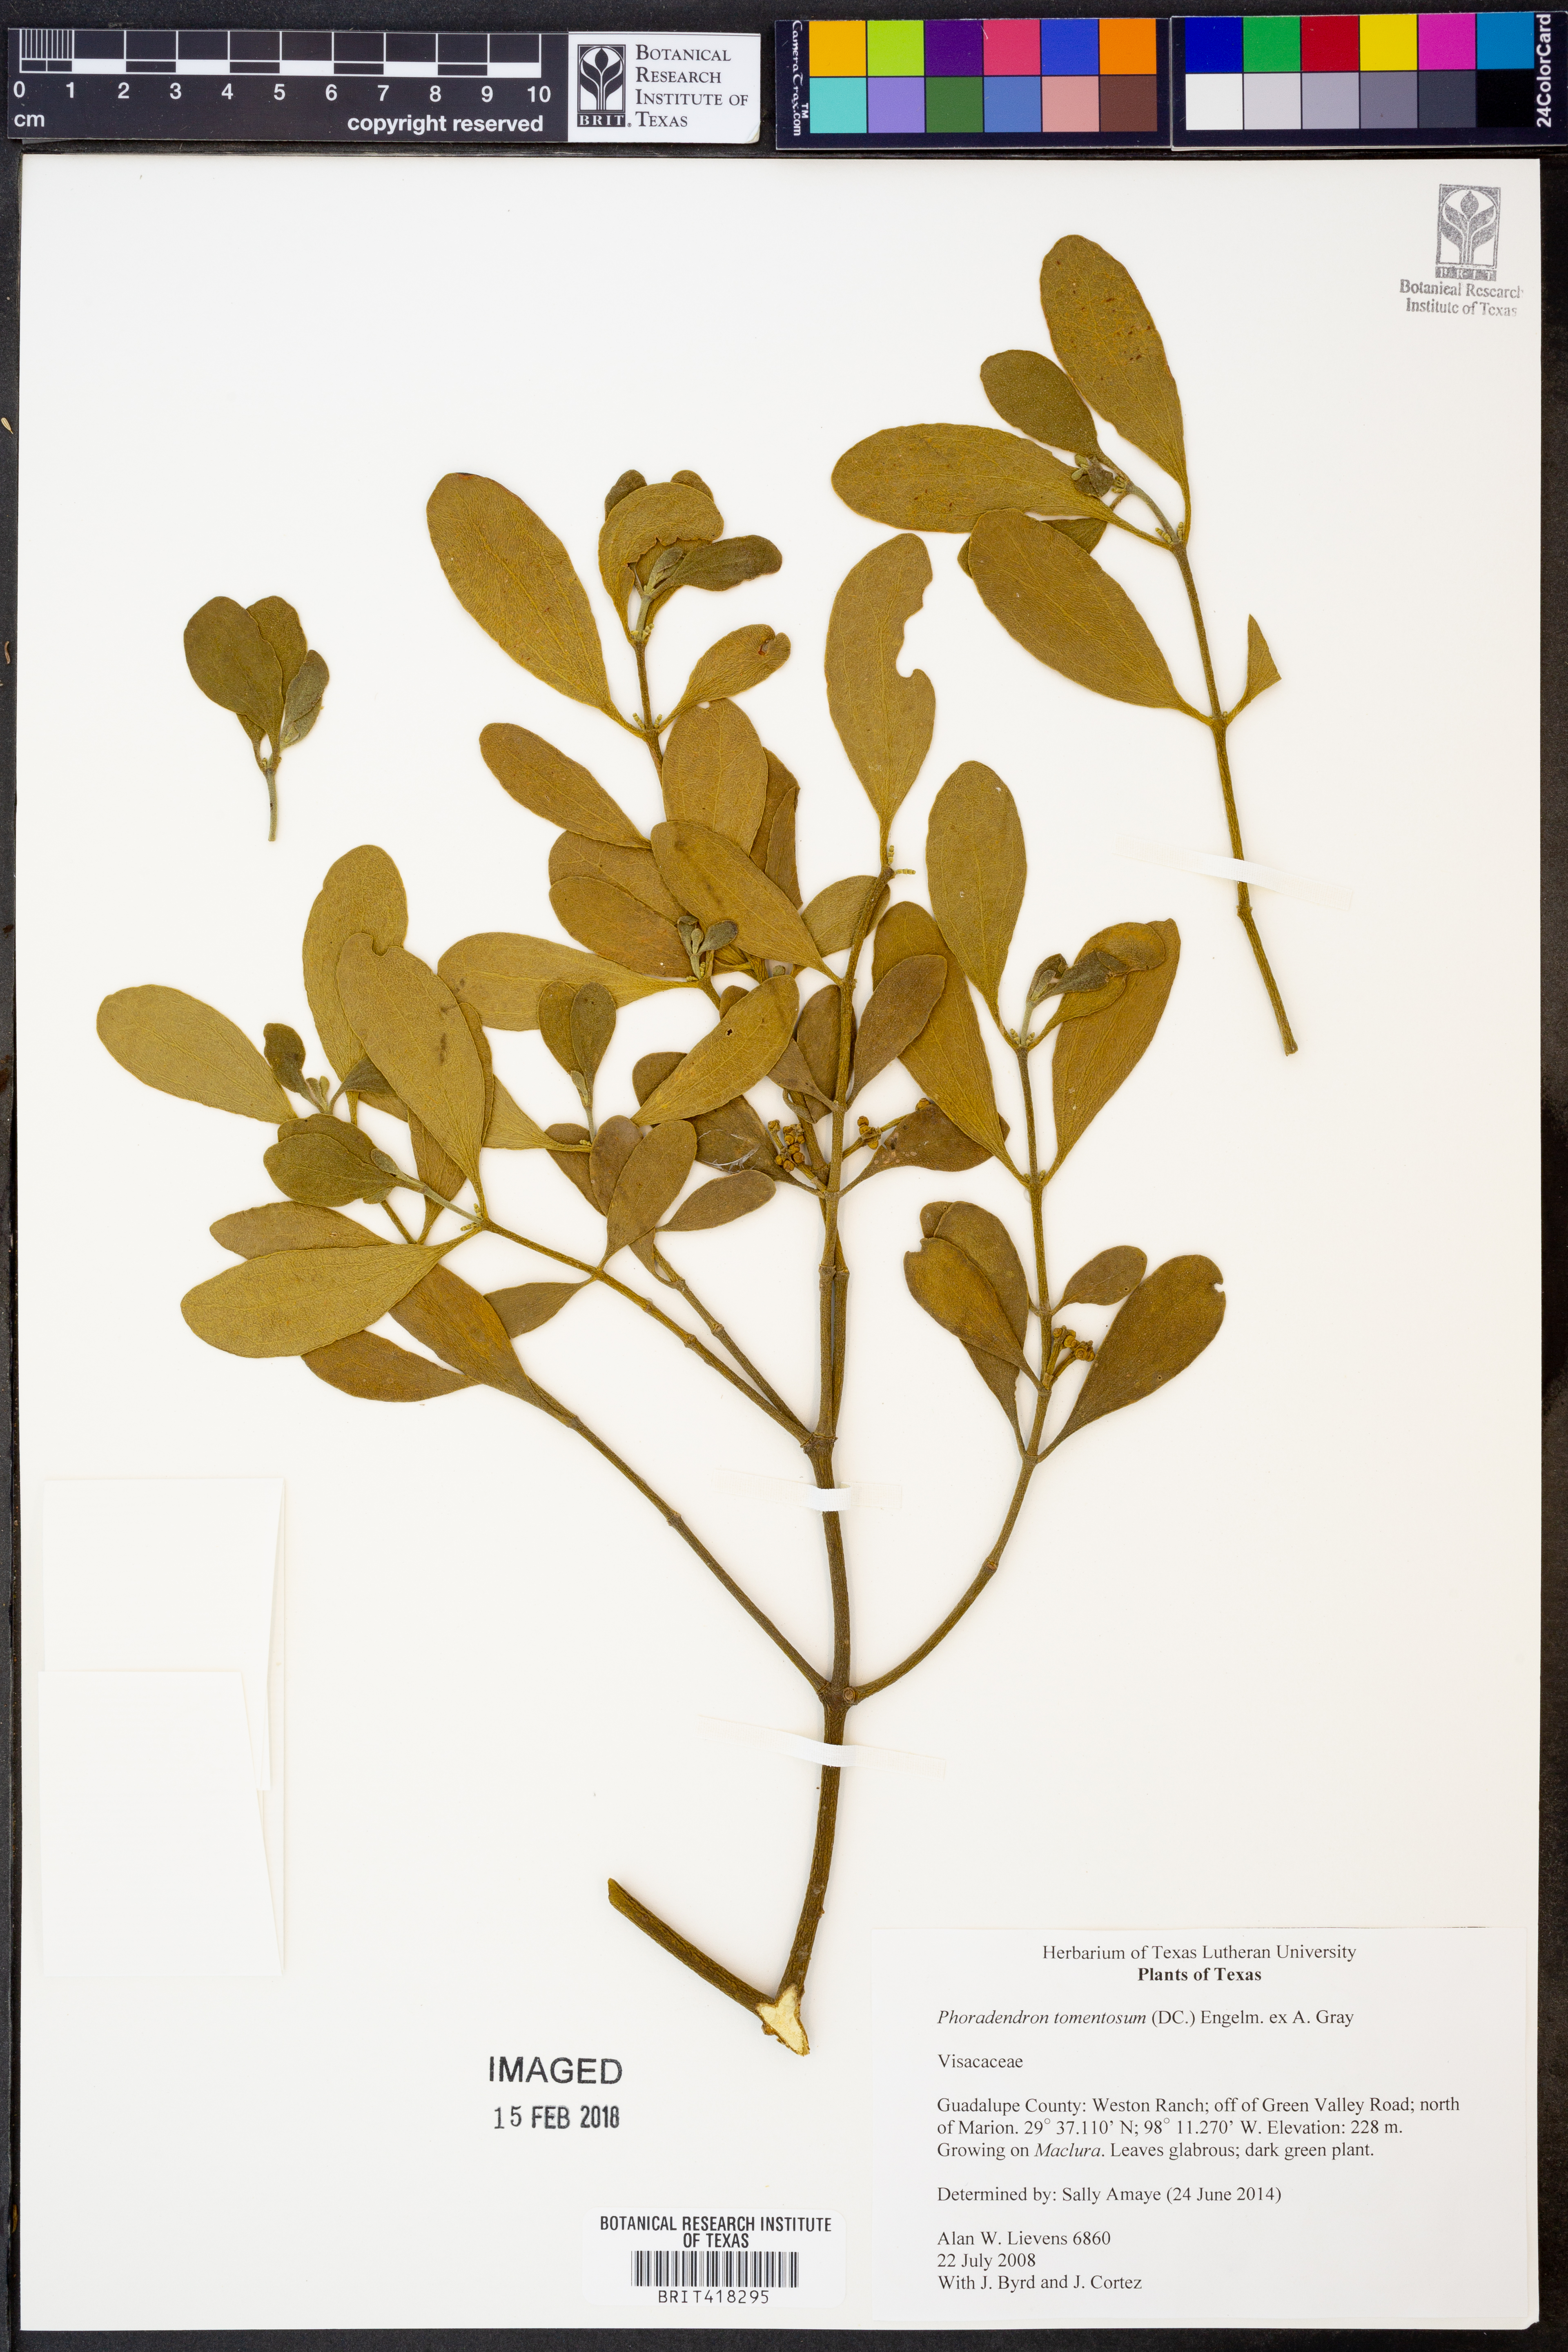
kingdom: Plantae
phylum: Tracheophyta
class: Magnoliopsida
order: Santalales
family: Viscaceae
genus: Phoradendron
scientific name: Phoradendron leucarpum
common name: Pacific mistletoe
